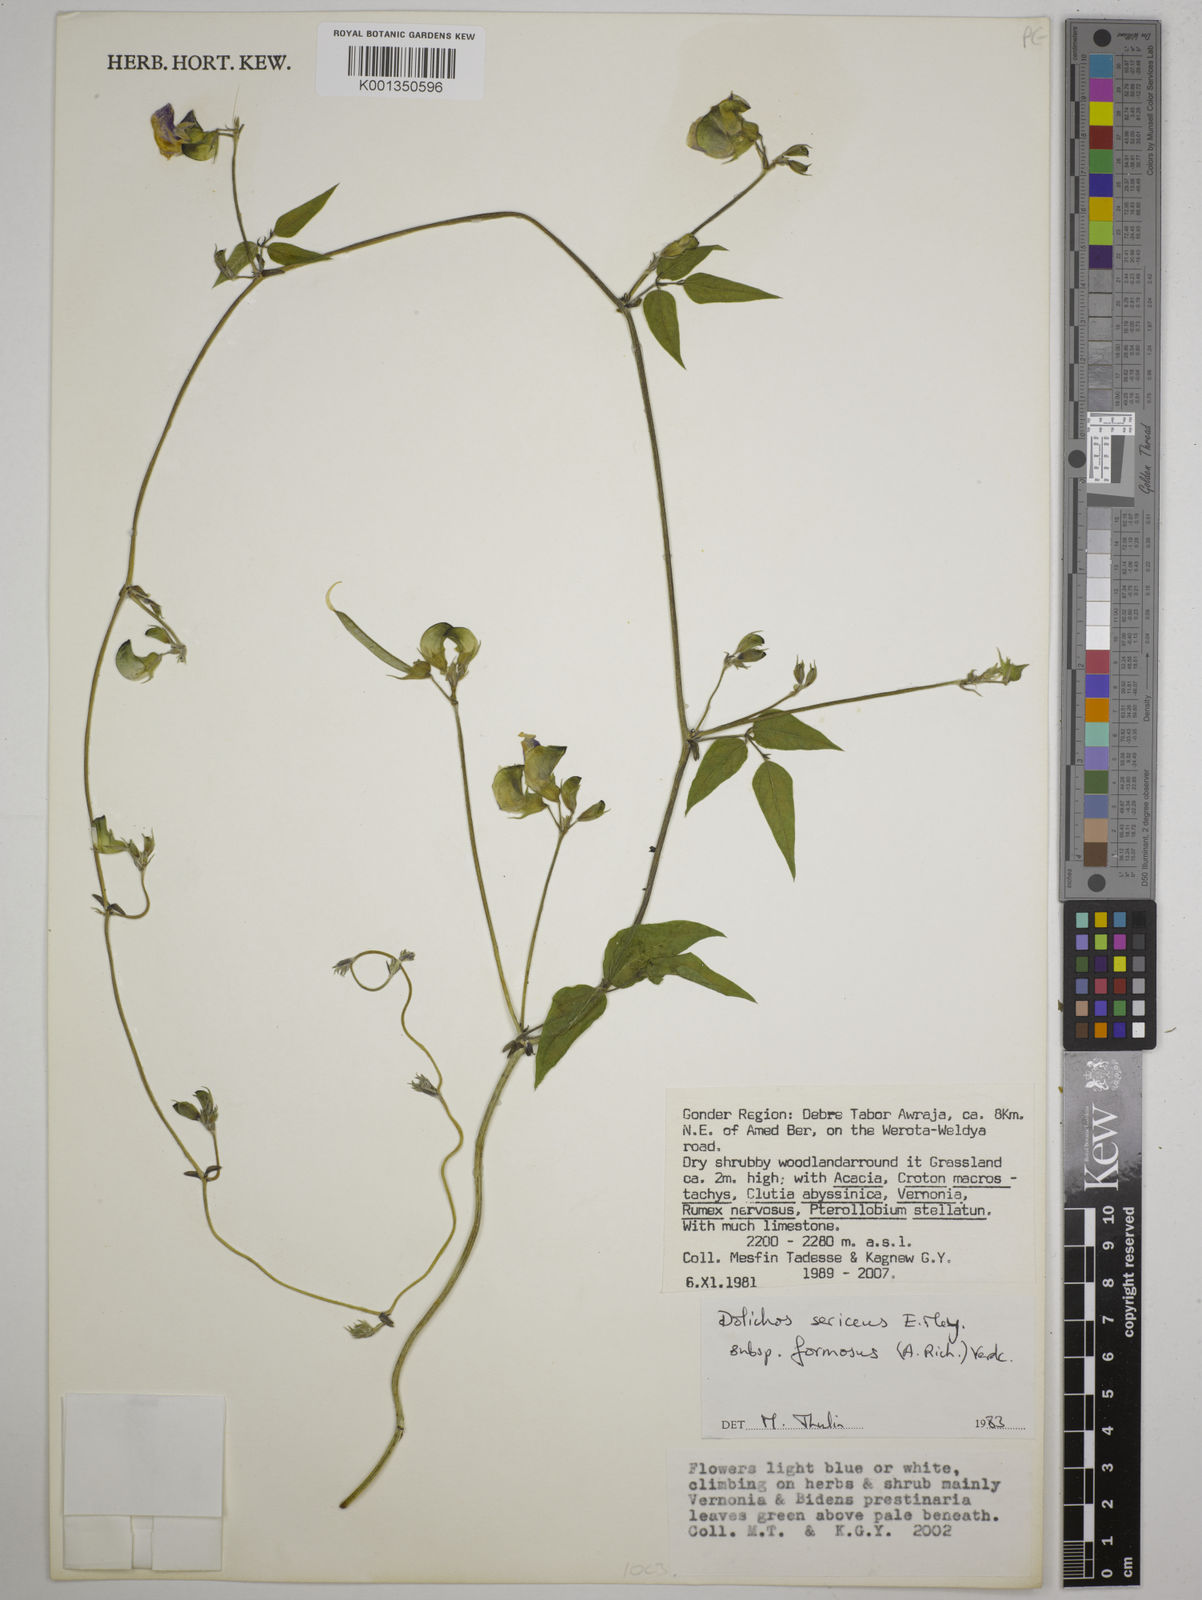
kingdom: Plantae
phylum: Tracheophyta
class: Magnoliopsida
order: Fabales
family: Fabaceae
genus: Dolichos
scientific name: Dolichos sericeus
